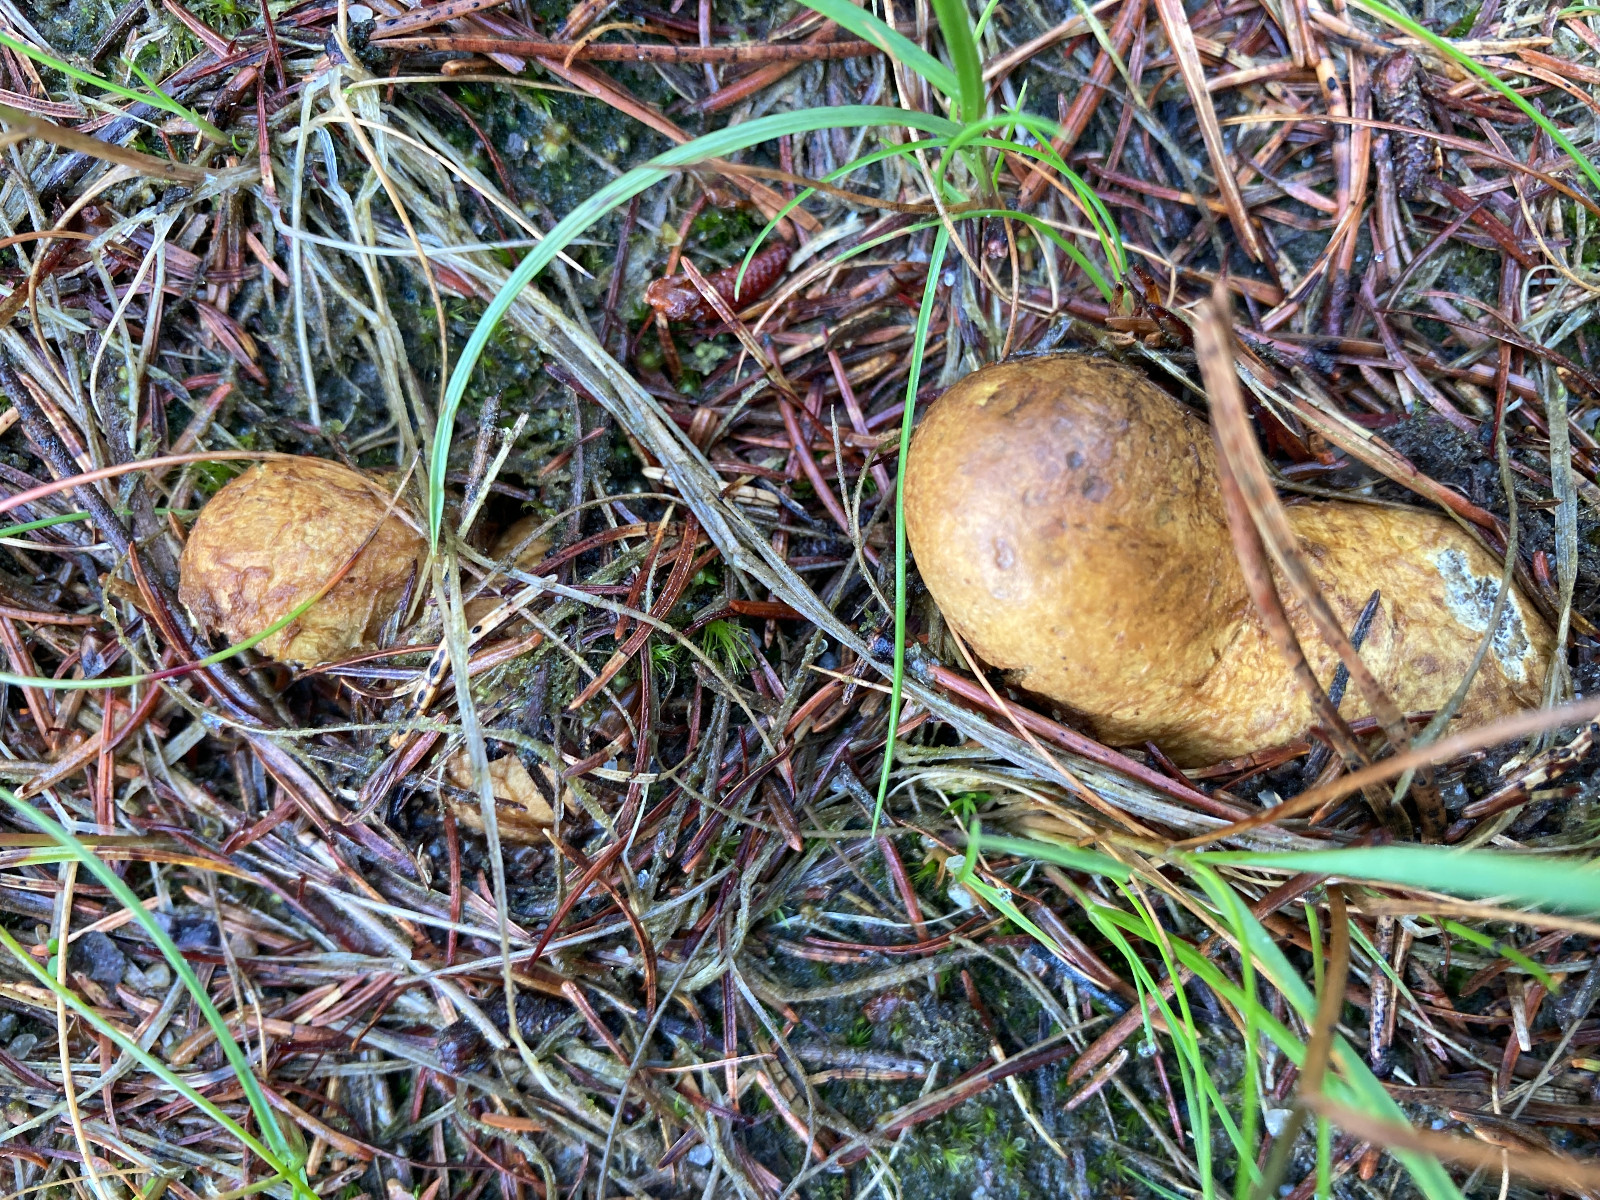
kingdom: Fungi
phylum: Basidiomycota
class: Agaricomycetes
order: Boletales
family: Rhizopogonaceae
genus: Rhizopogon
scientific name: Rhizopogon obtextus
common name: gul skægtrøffel
